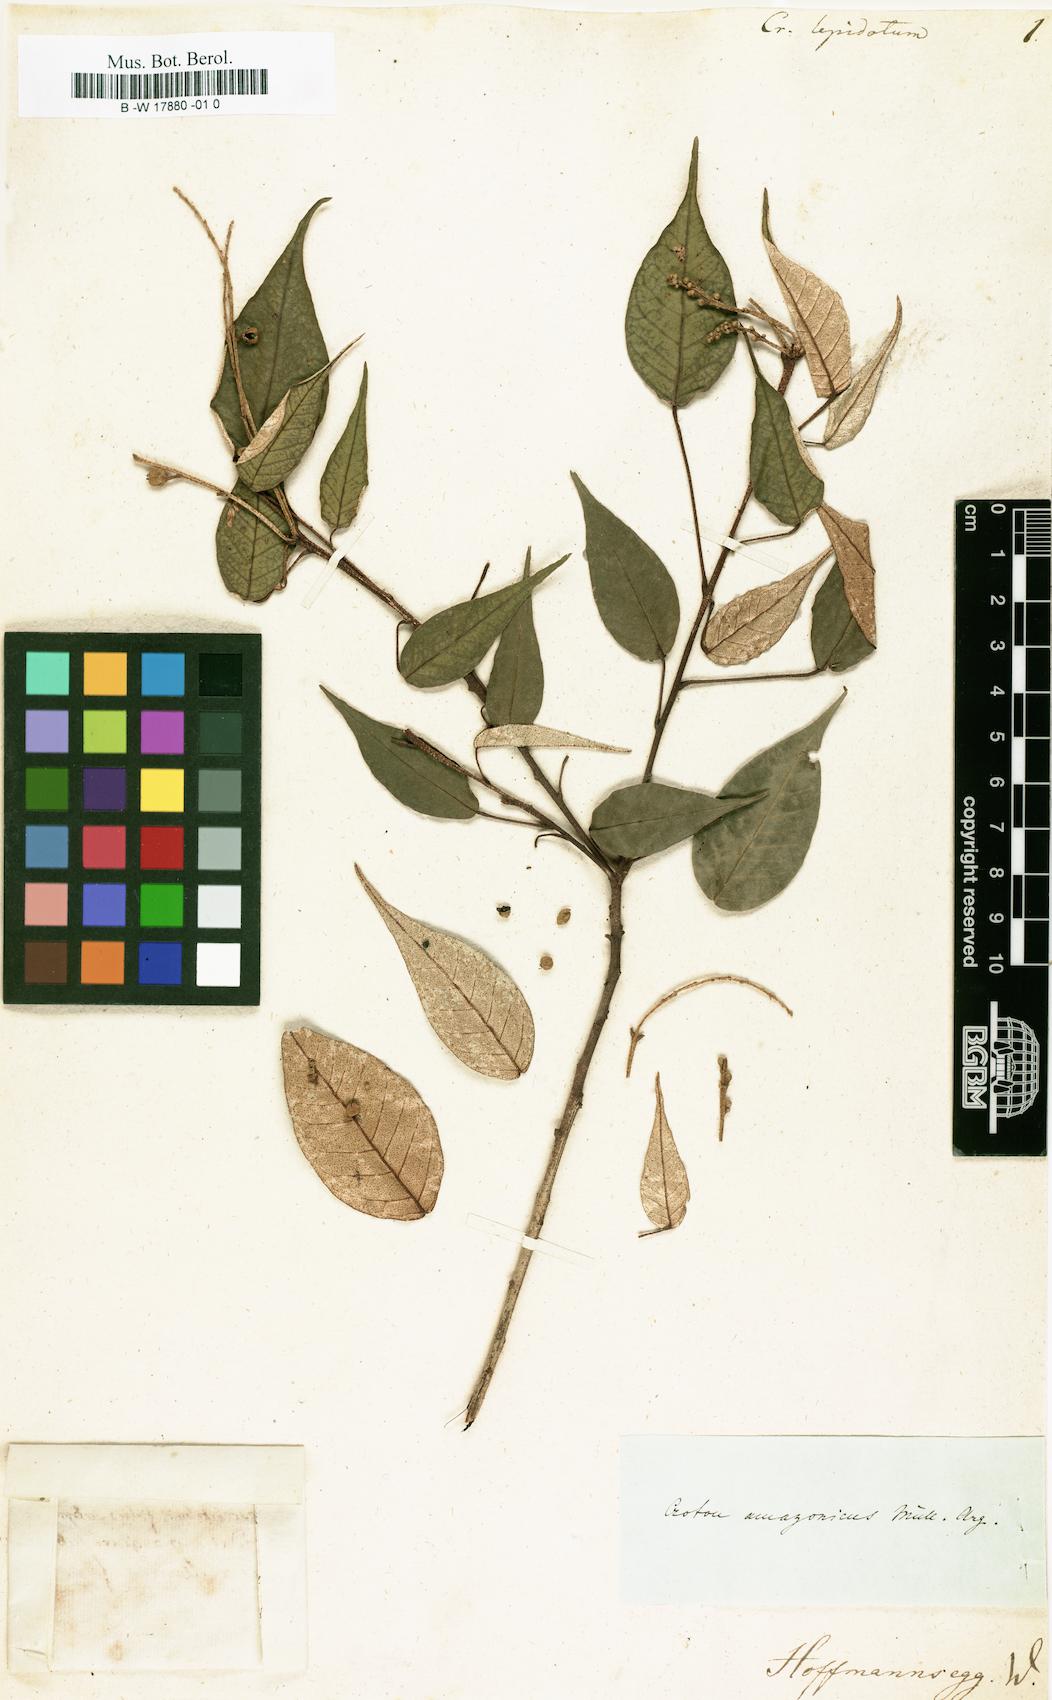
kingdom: Plantae
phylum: Tracheophyta
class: Magnoliopsida
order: Malpighiales
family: Euphorbiaceae
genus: Croton
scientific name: Croton chrysodaphne
